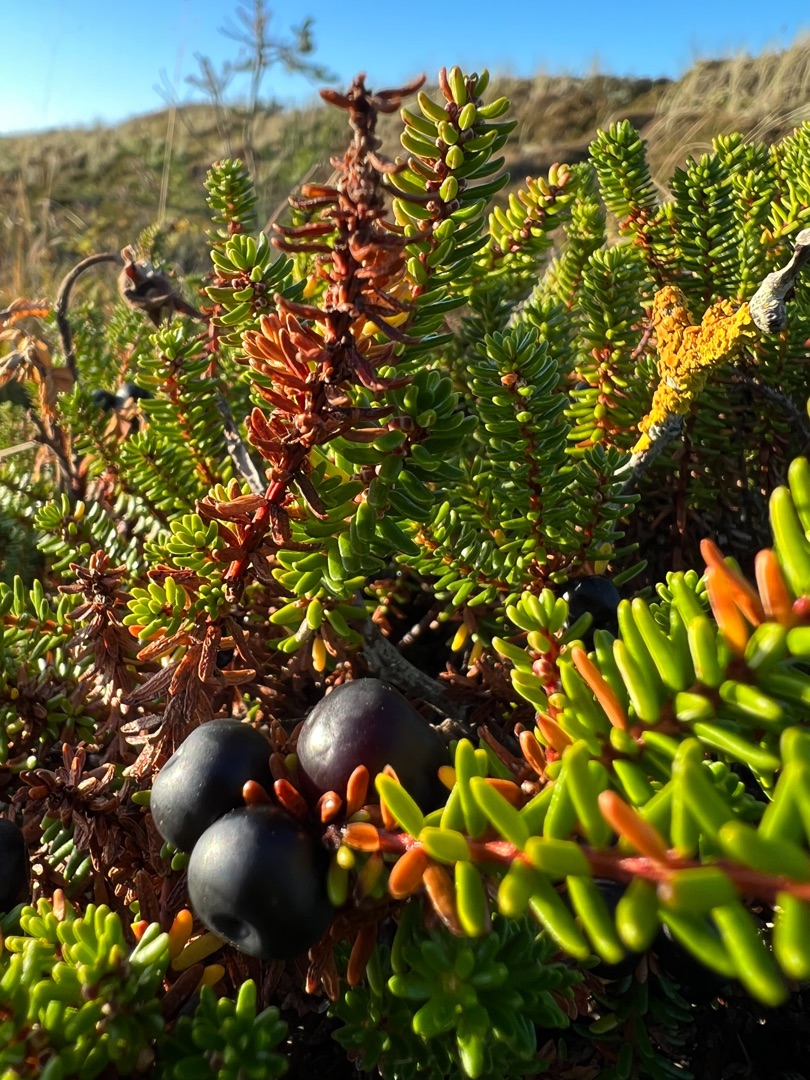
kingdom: Plantae
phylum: Tracheophyta
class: Magnoliopsida
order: Ericales
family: Ericaceae
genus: Empetrum
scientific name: Empetrum nigrum
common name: Revling
